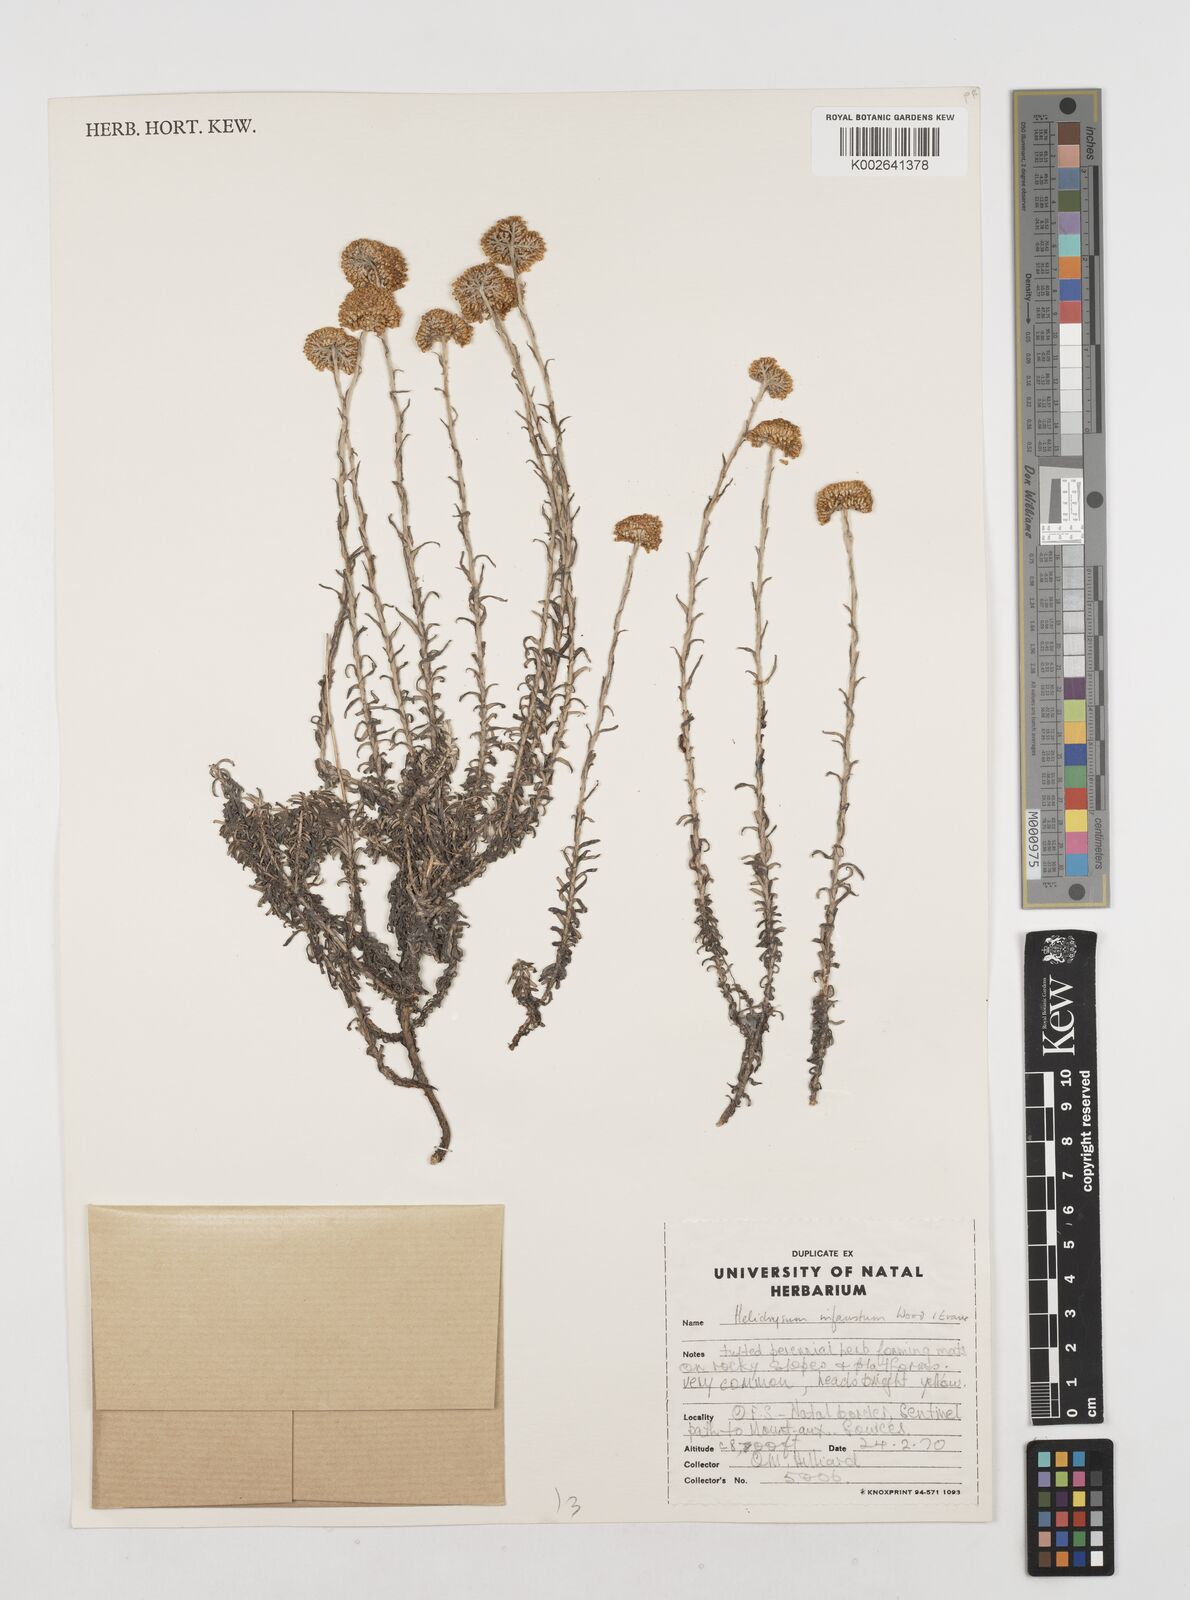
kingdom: Plantae
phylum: Tracheophyta
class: Magnoliopsida
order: Asterales
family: Asteraceae
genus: Calomeria
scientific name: Calomeria infausta
